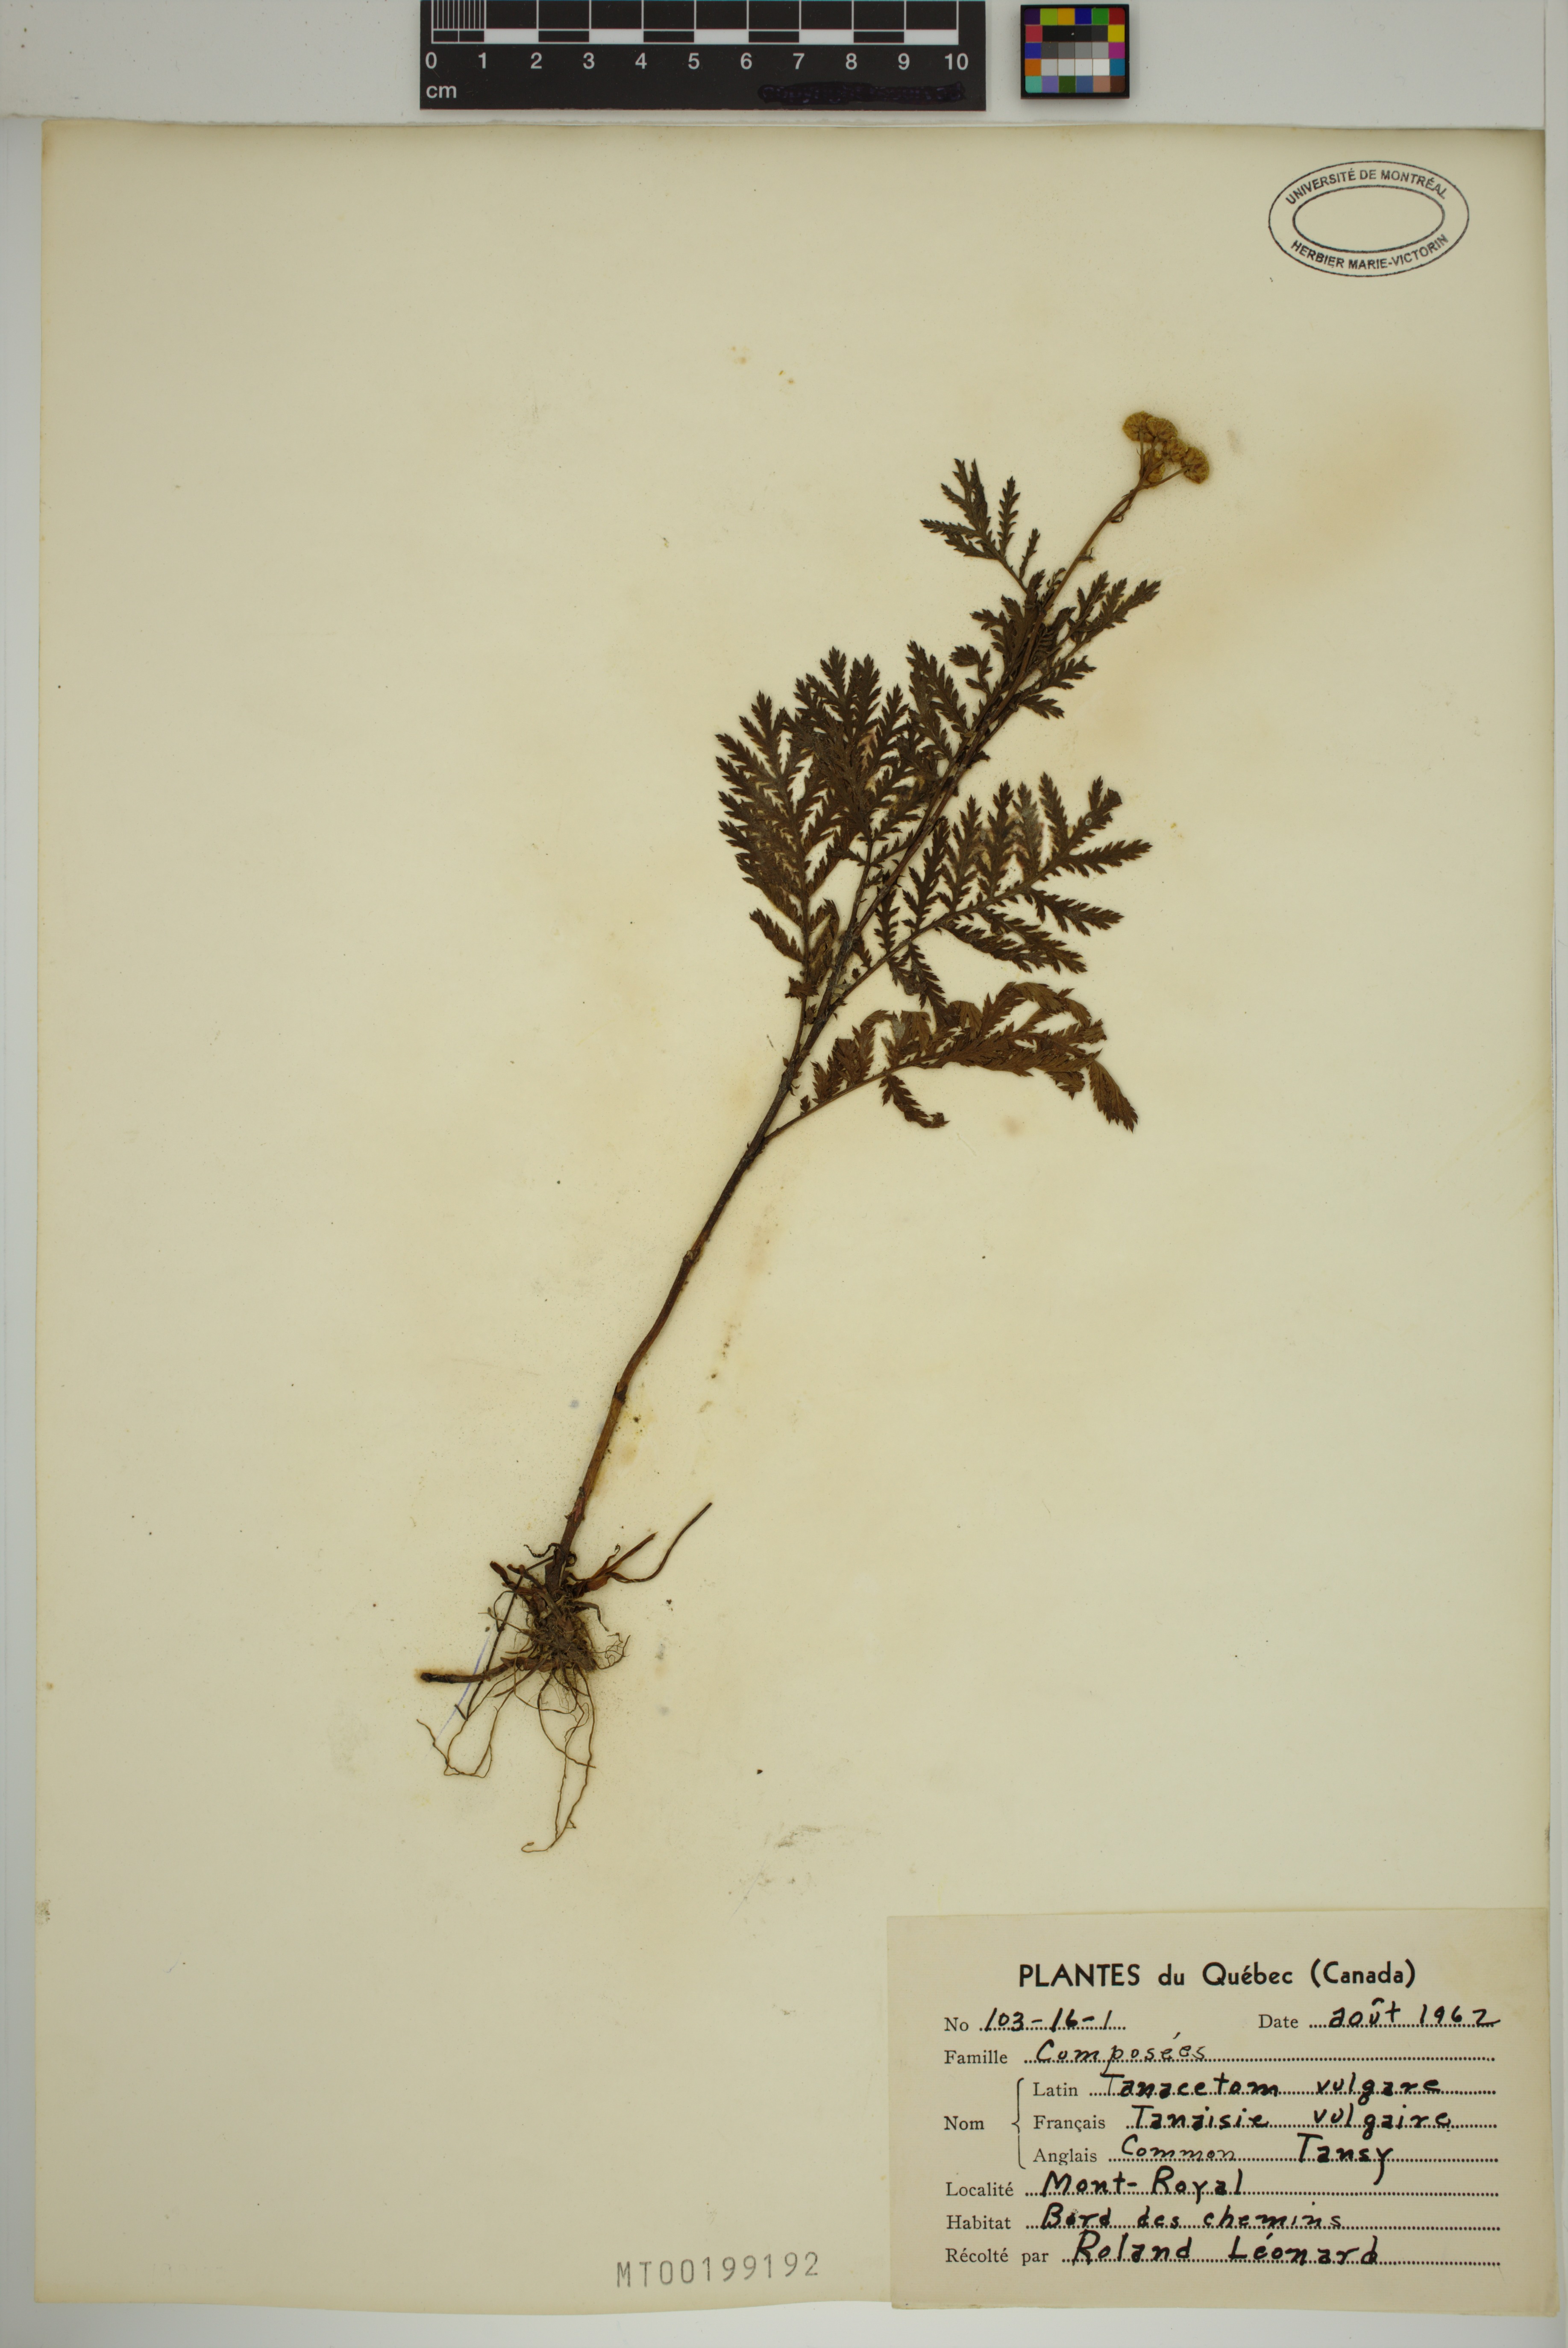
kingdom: Plantae
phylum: Tracheophyta
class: Magnoliopsida
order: Asterales
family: Asteraceae
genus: Tanacetum
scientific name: Tanacetum vulgare
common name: Common tansy
